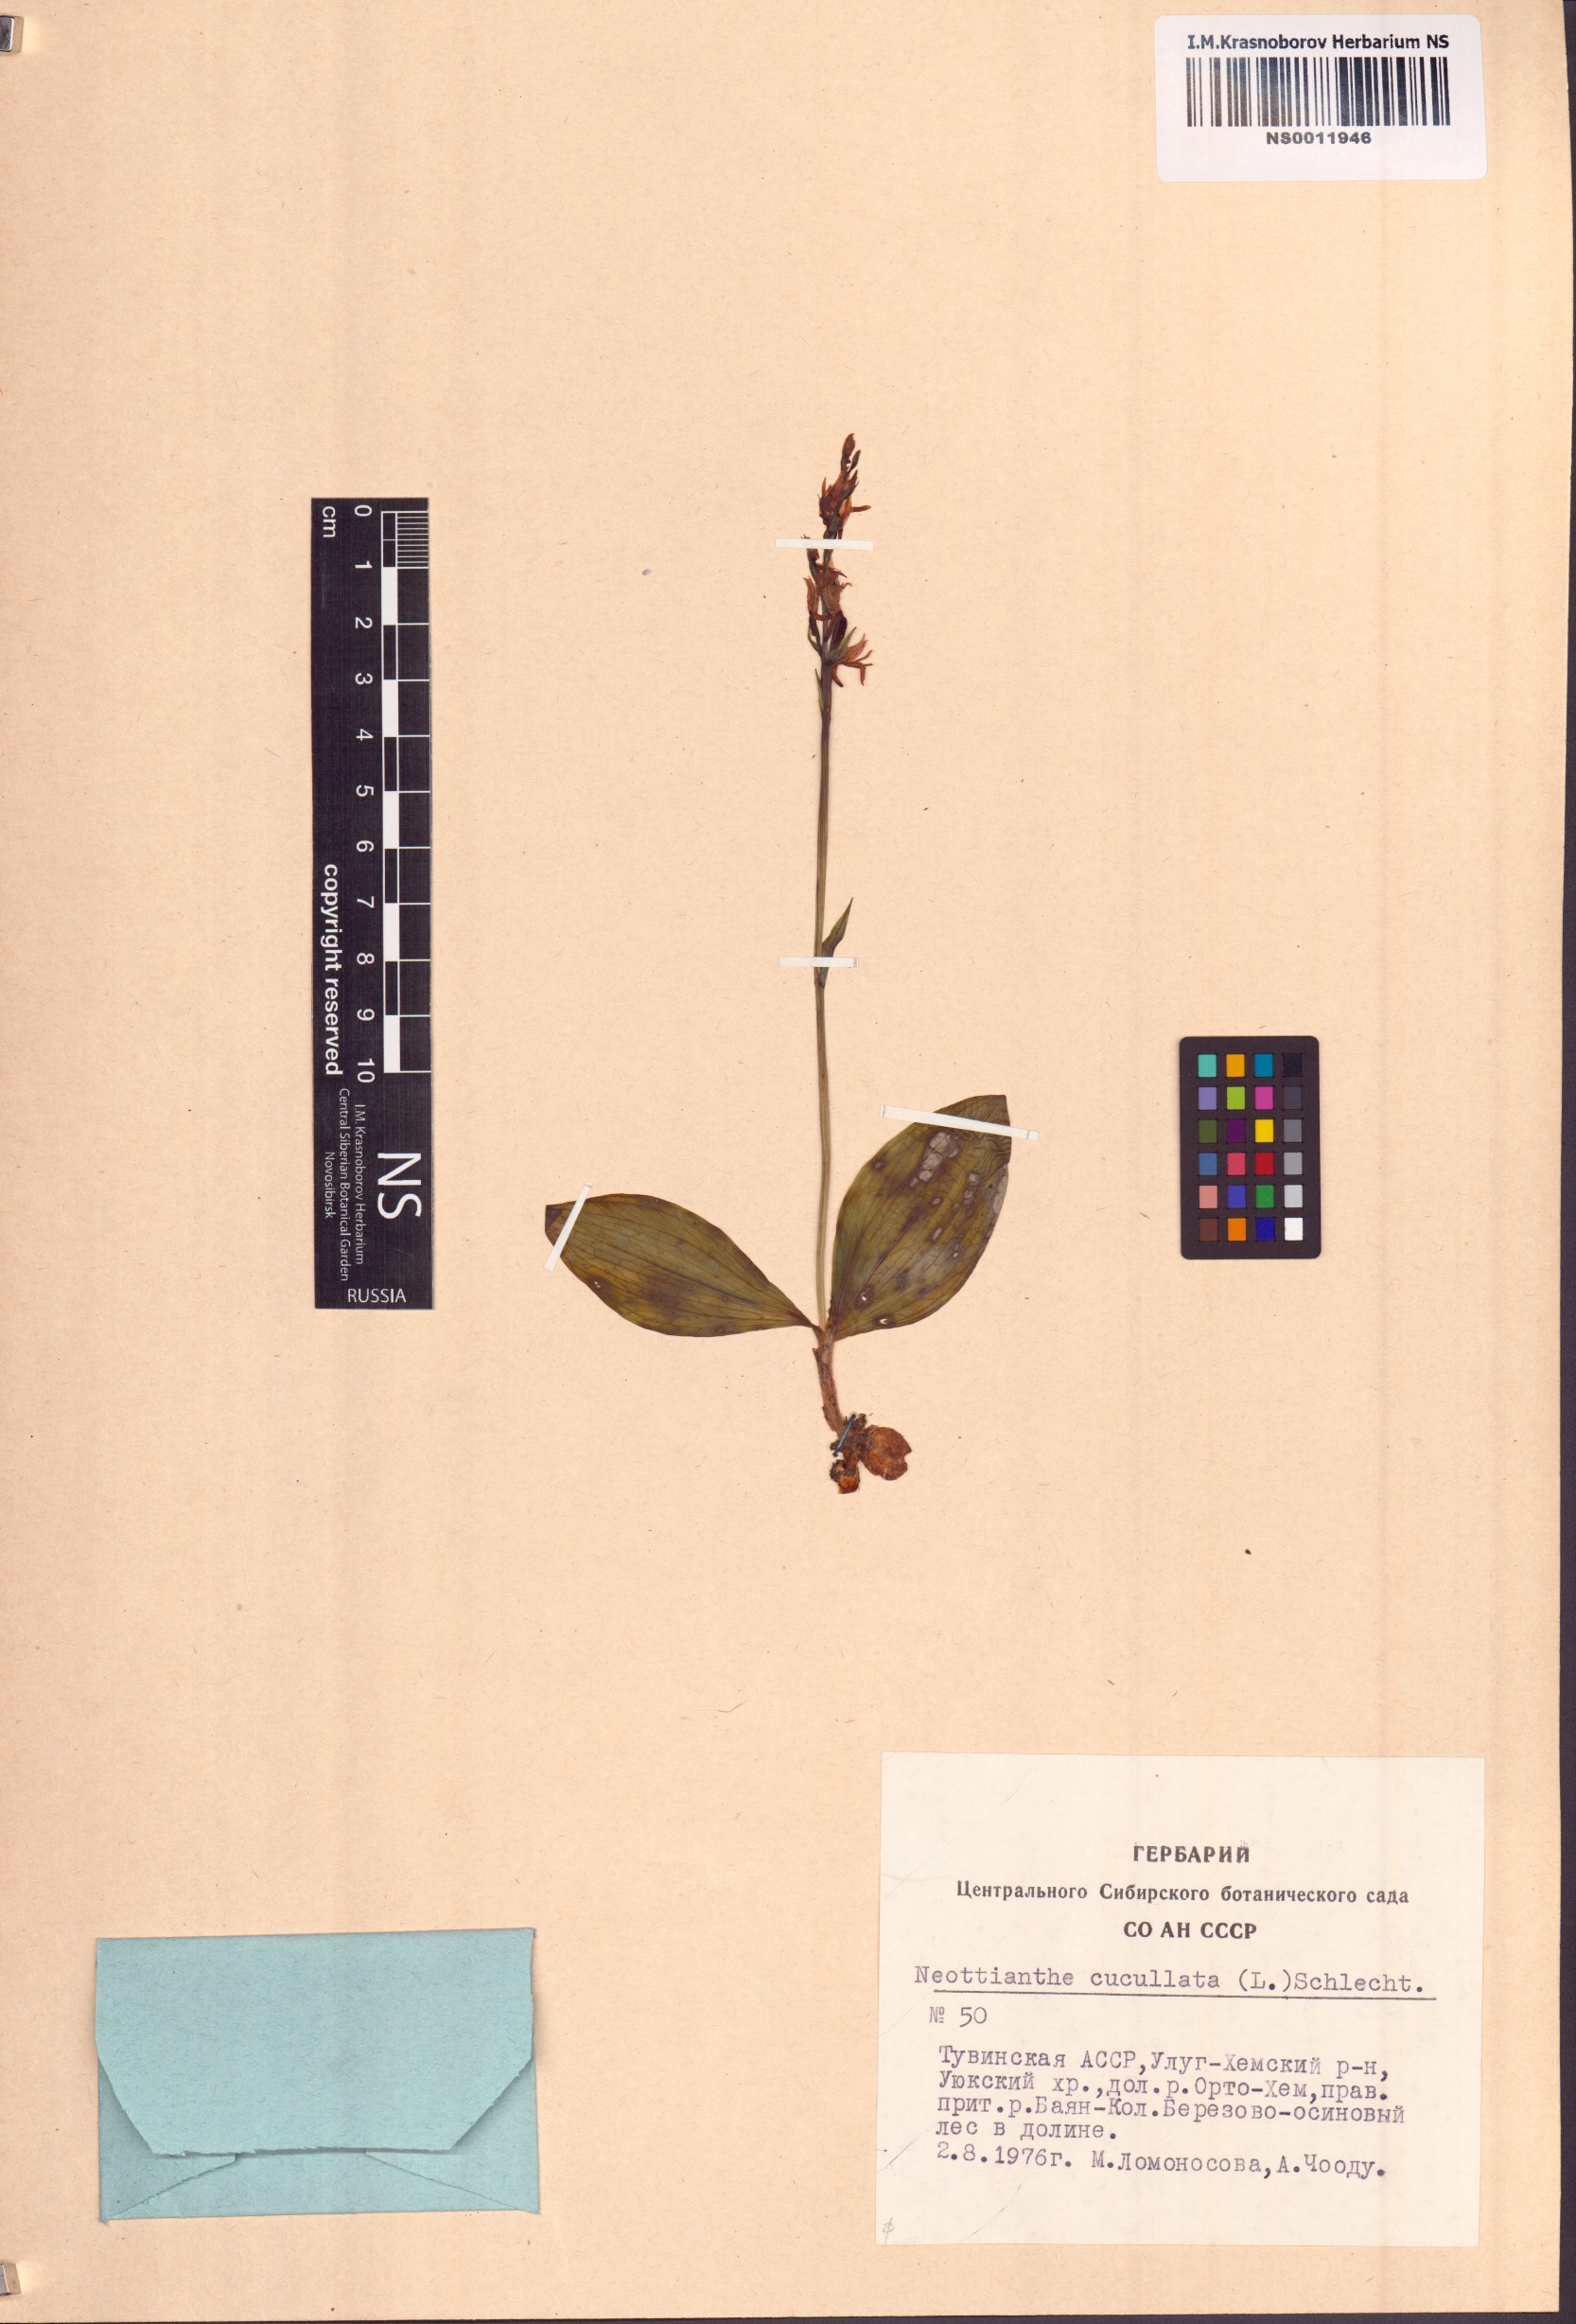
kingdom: Plantae
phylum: Tracheophyta
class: Liliopsida
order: Asparagales
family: Orchidaceae
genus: Hemipilia
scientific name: Hemipilia cucullata
